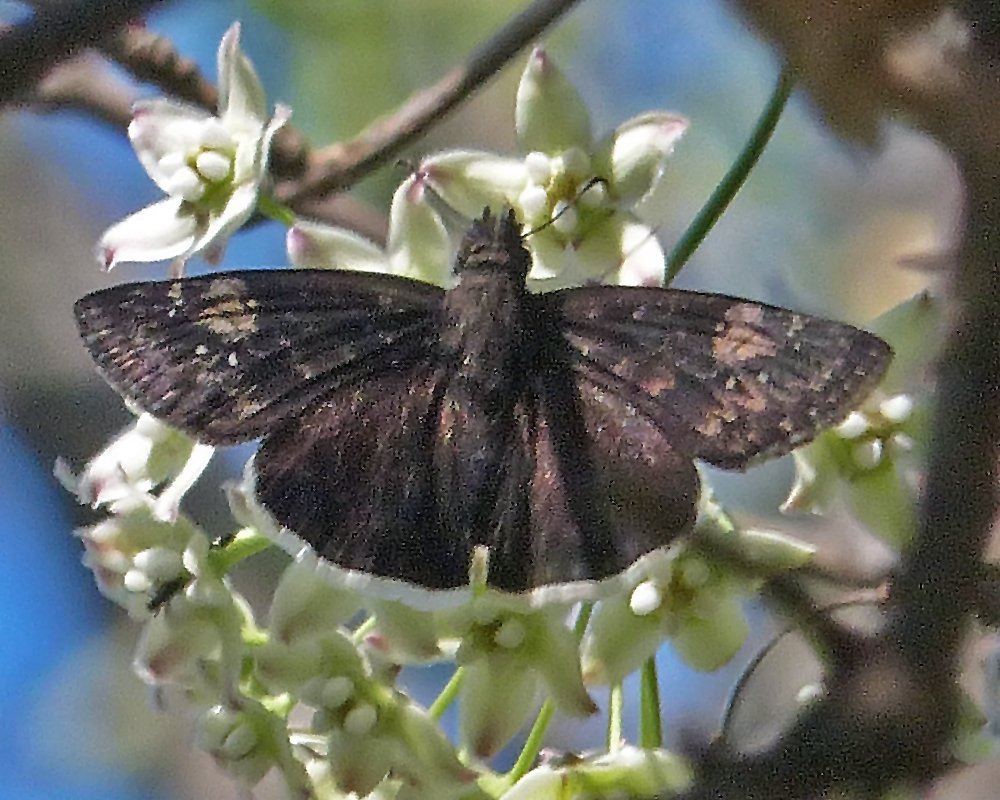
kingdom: Animalia
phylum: Arthropoda
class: Insecta
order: Lepidoptera
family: Hesperiidae
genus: Erynnis
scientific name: Erynnis funeralis
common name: Funereal Duskywing
